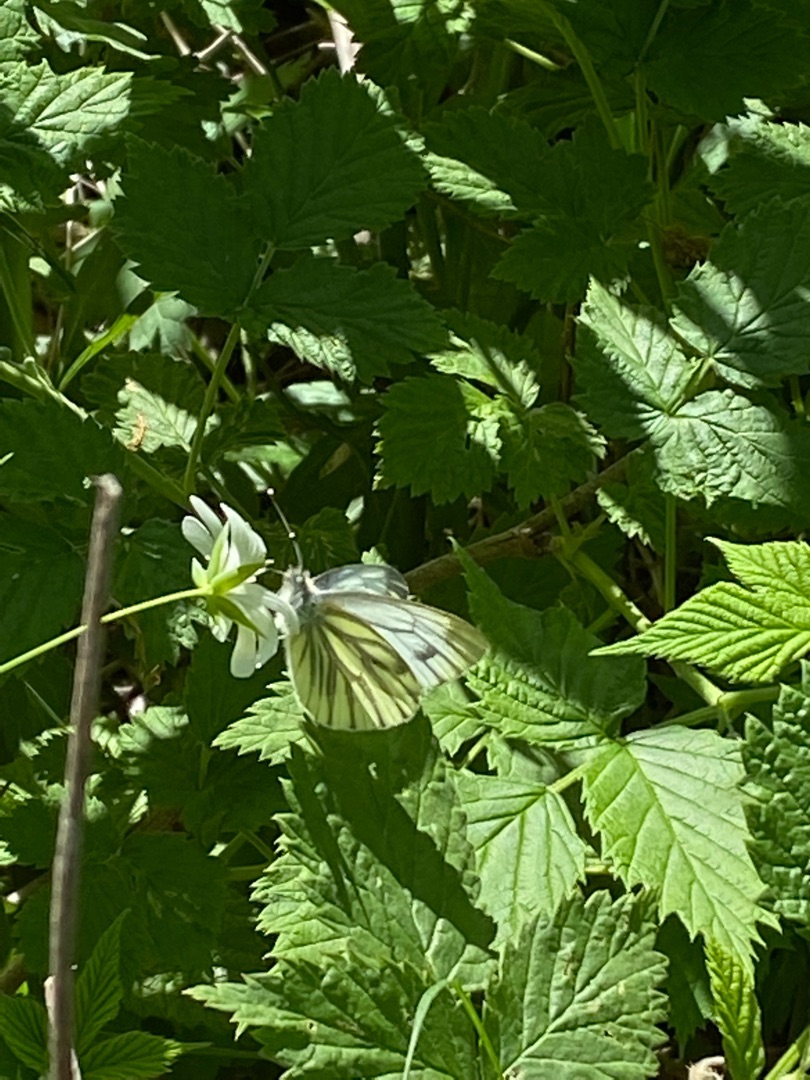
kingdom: Animalia
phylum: Arthropoda
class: Insecta
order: Lepidoptera
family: Pieridae
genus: Pieris
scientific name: Pieris napi
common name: Grønåret kålsommerfugl
